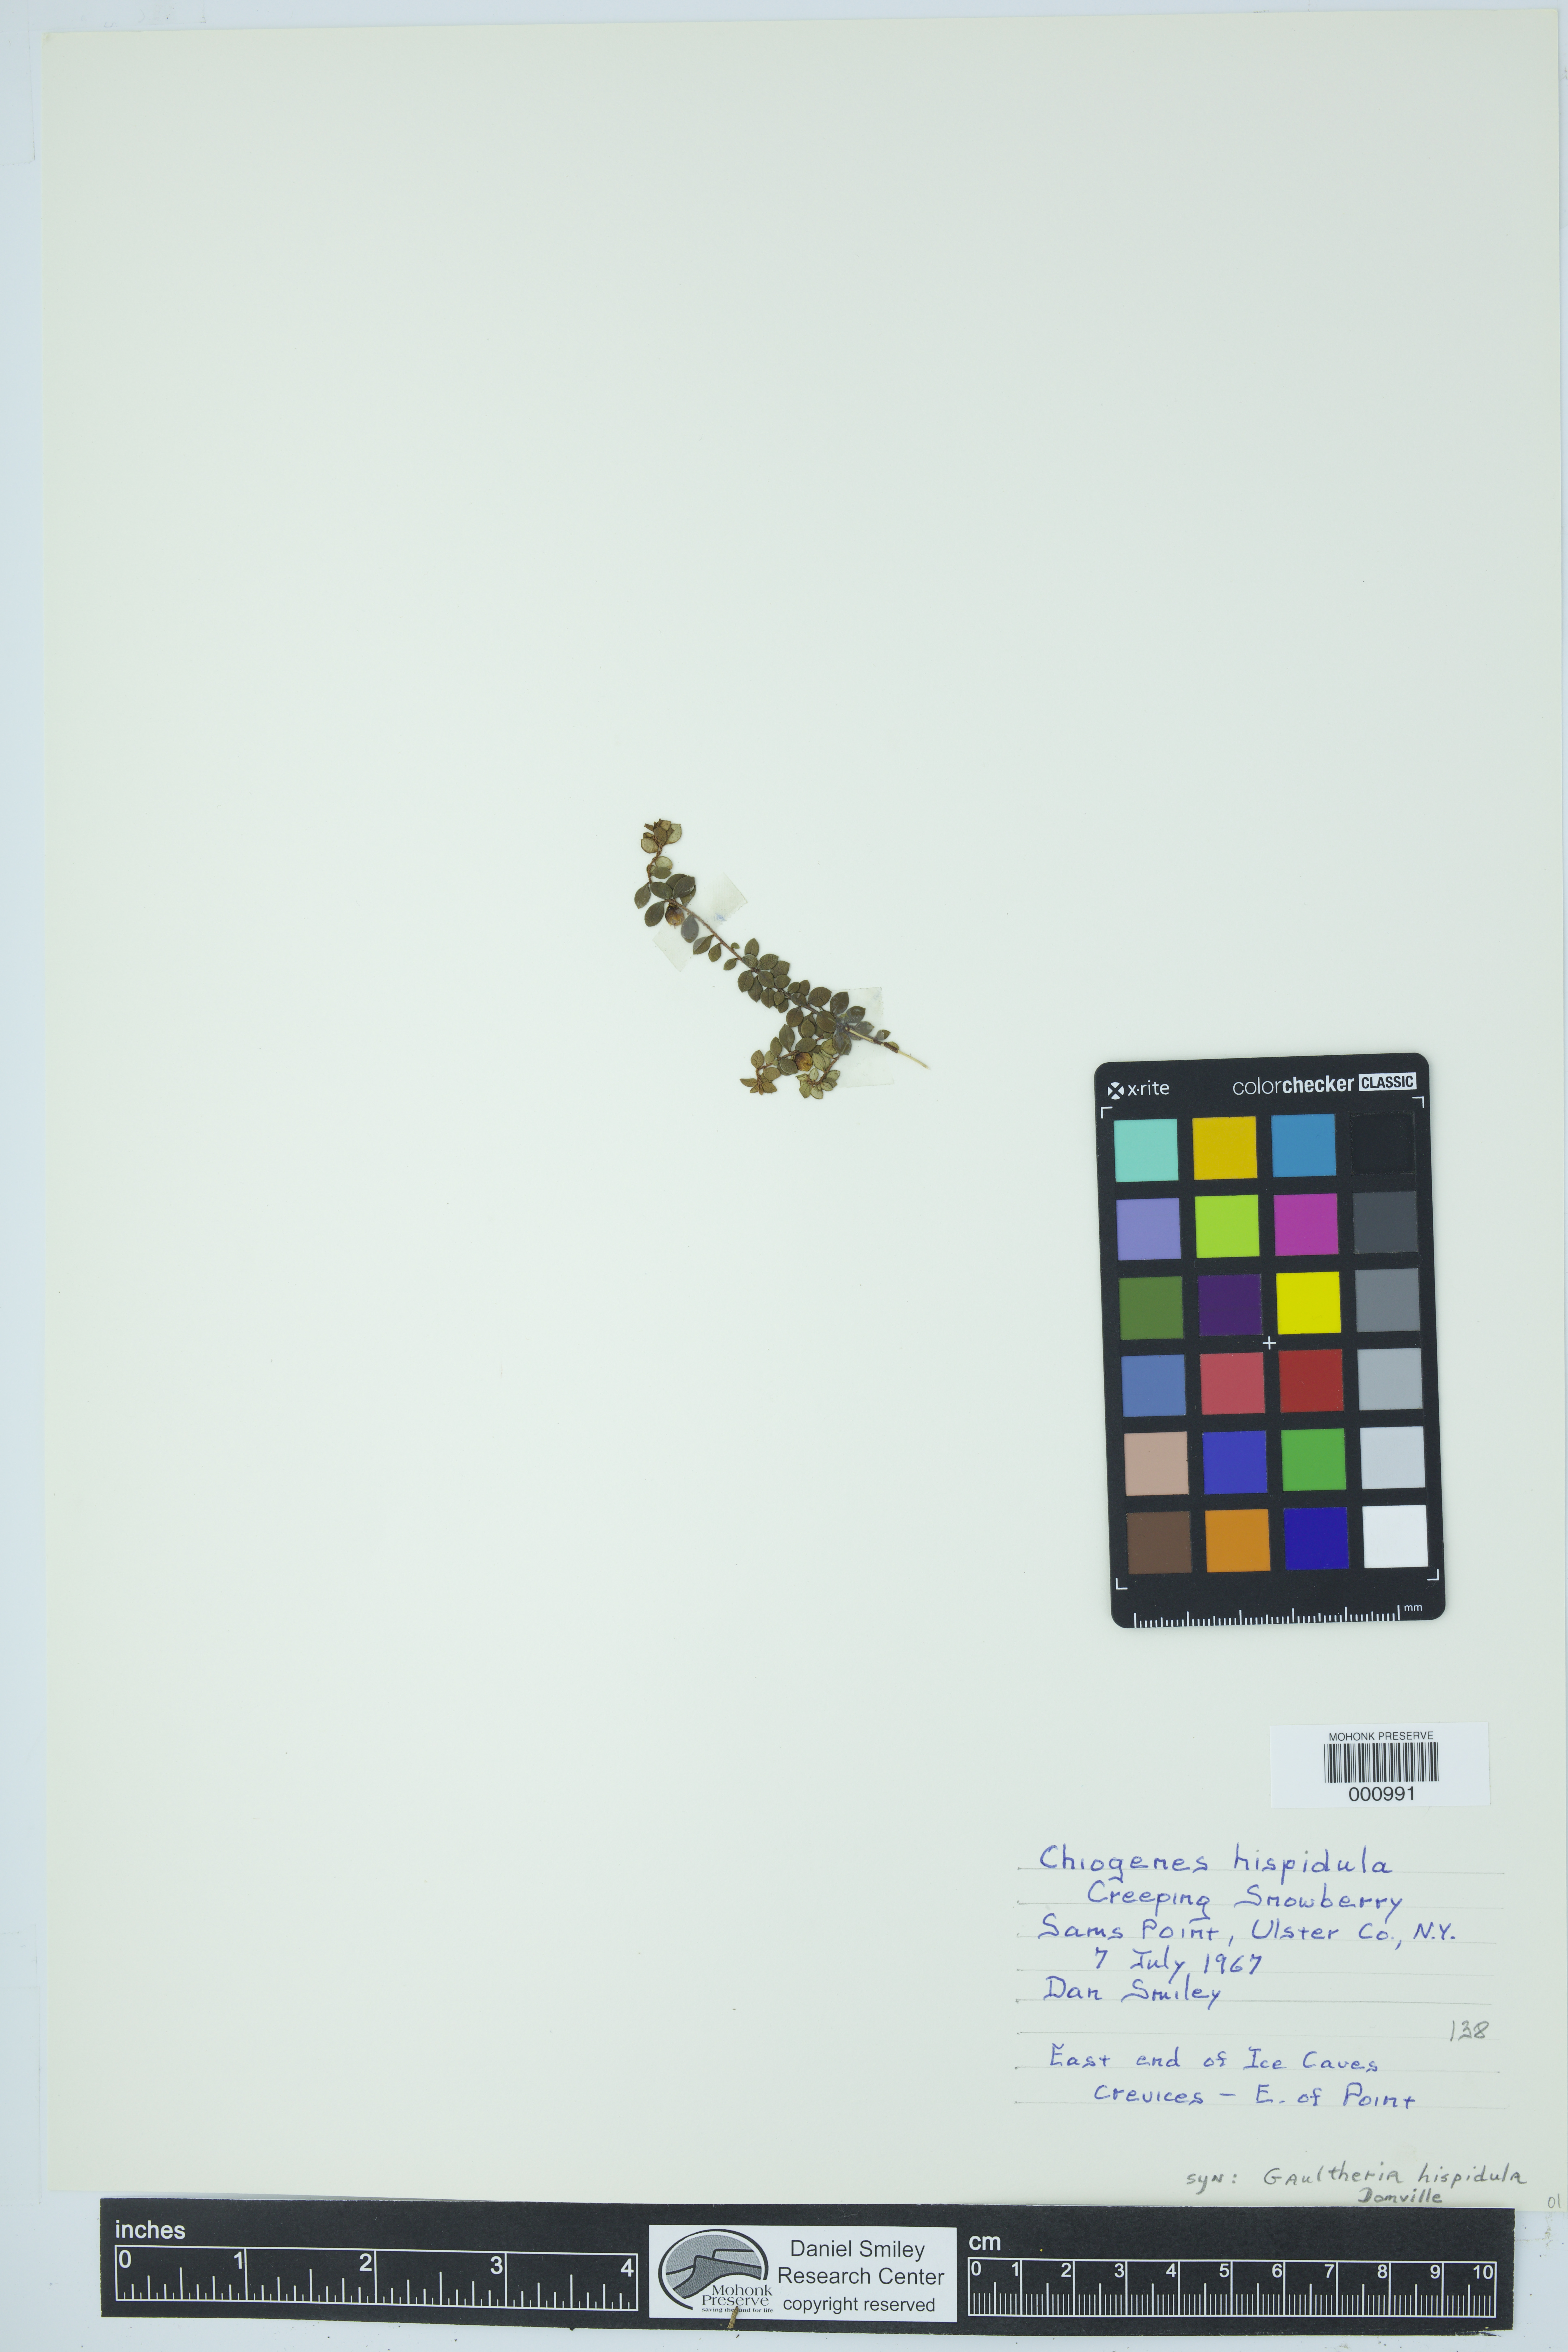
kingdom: Plantae
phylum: Tracheophyta
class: Magnoliopsida
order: Ericales
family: Ericaceae
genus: Gaultheria
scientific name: Gaultheria hispidula
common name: Cancer wintergreen
